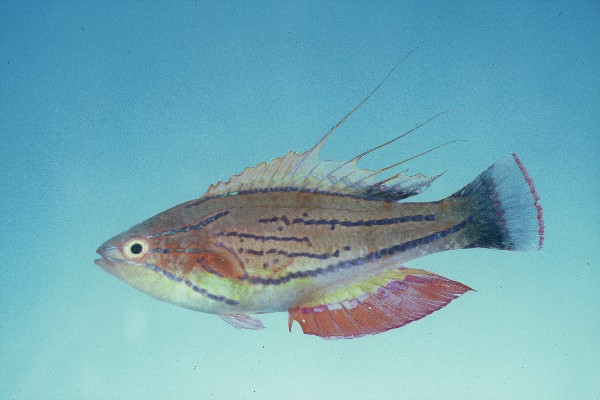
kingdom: Animalia
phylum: Chordata
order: Perciformes
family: Labridae
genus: Paracheilinus
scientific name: Paracheilinus mccoskeri
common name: Mccosker's flasher
